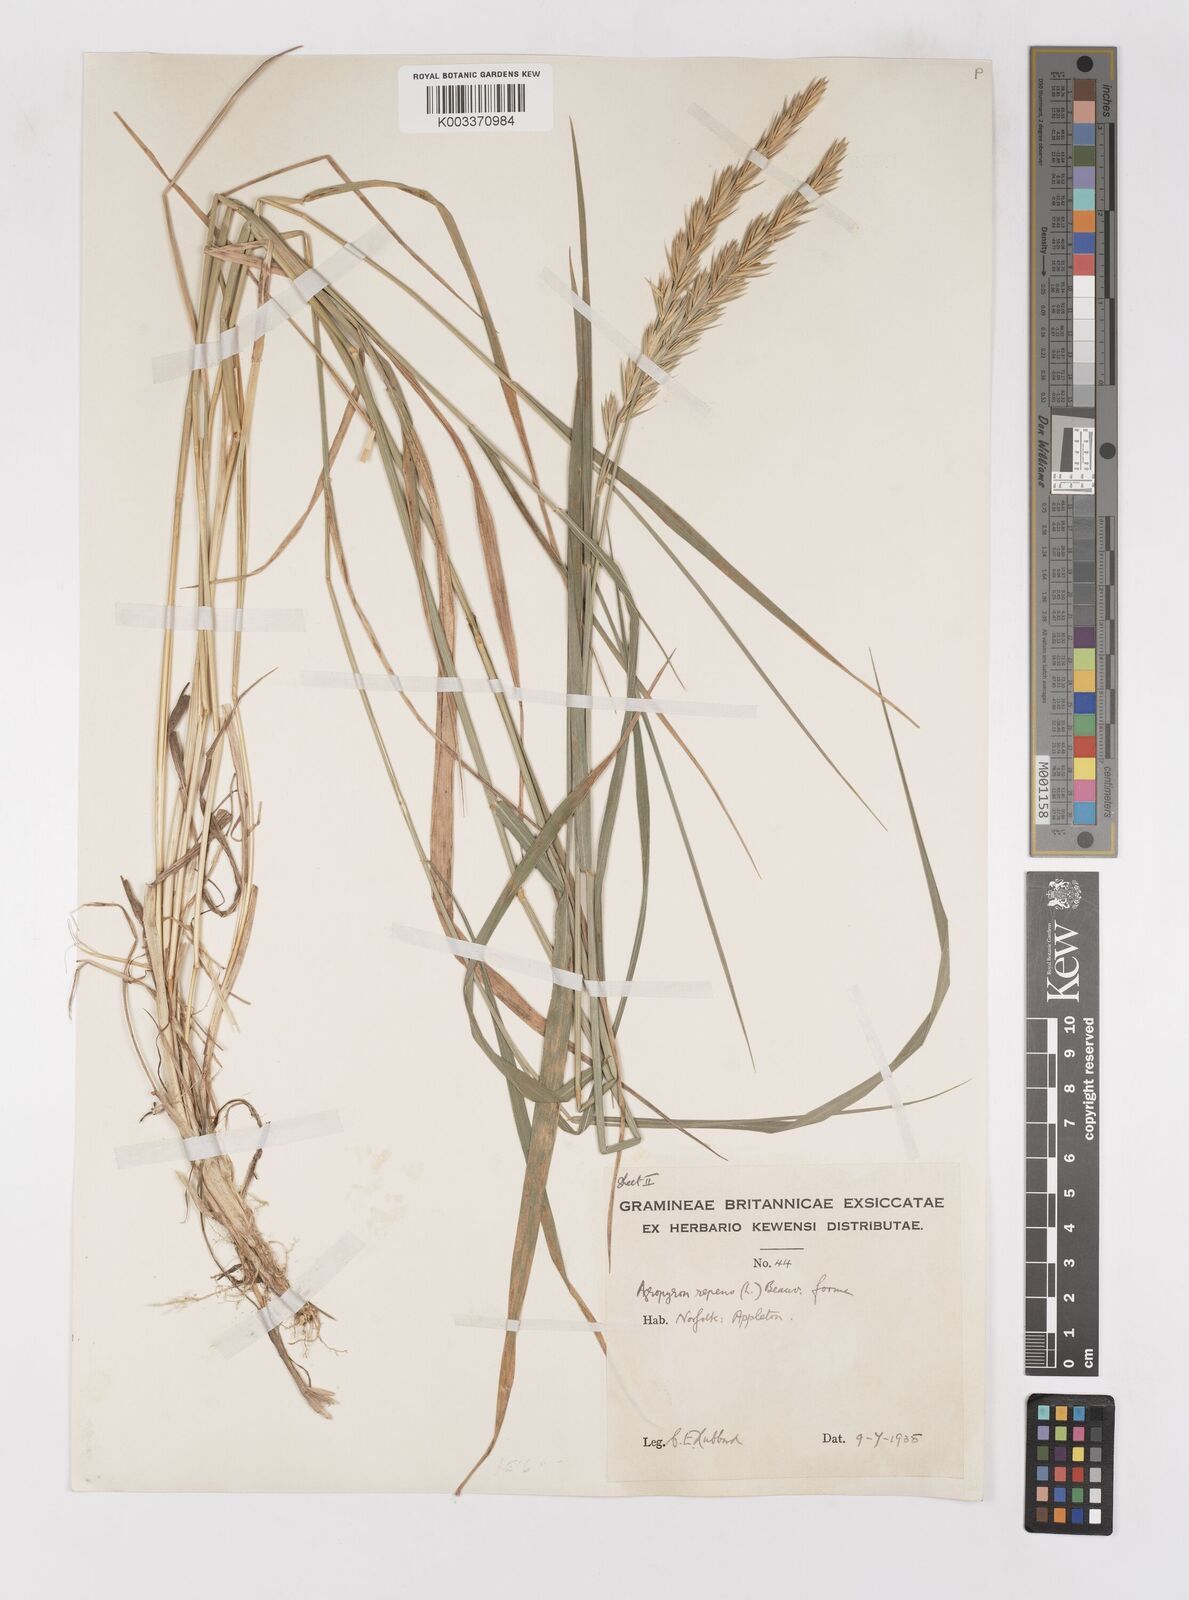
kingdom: Plantae
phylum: Tracheophyta
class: Liliopsida
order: Poales
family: Poaceae
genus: Elymus
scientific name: Elymus repens
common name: Quackgrass
